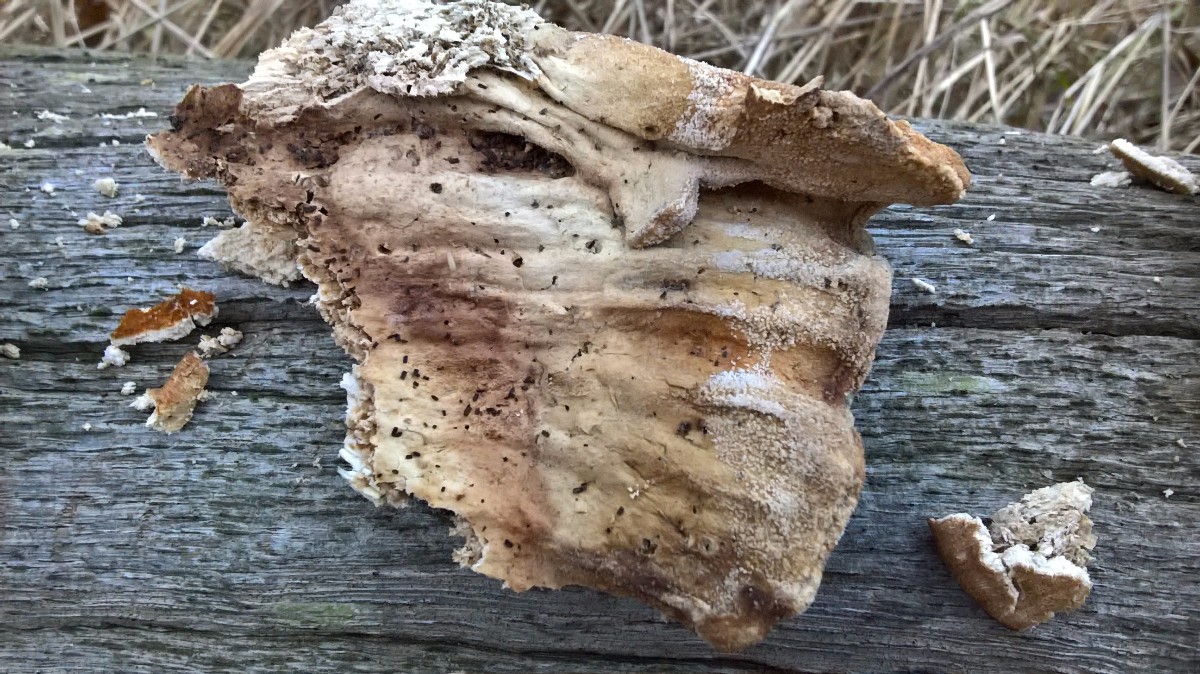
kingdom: Fungi
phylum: Basidiomycota
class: Agaricomycetes
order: Polyporales
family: Laetiporaceae
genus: Laetiporus
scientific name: Laetiporus sulphureus
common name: svovlporesvamp
